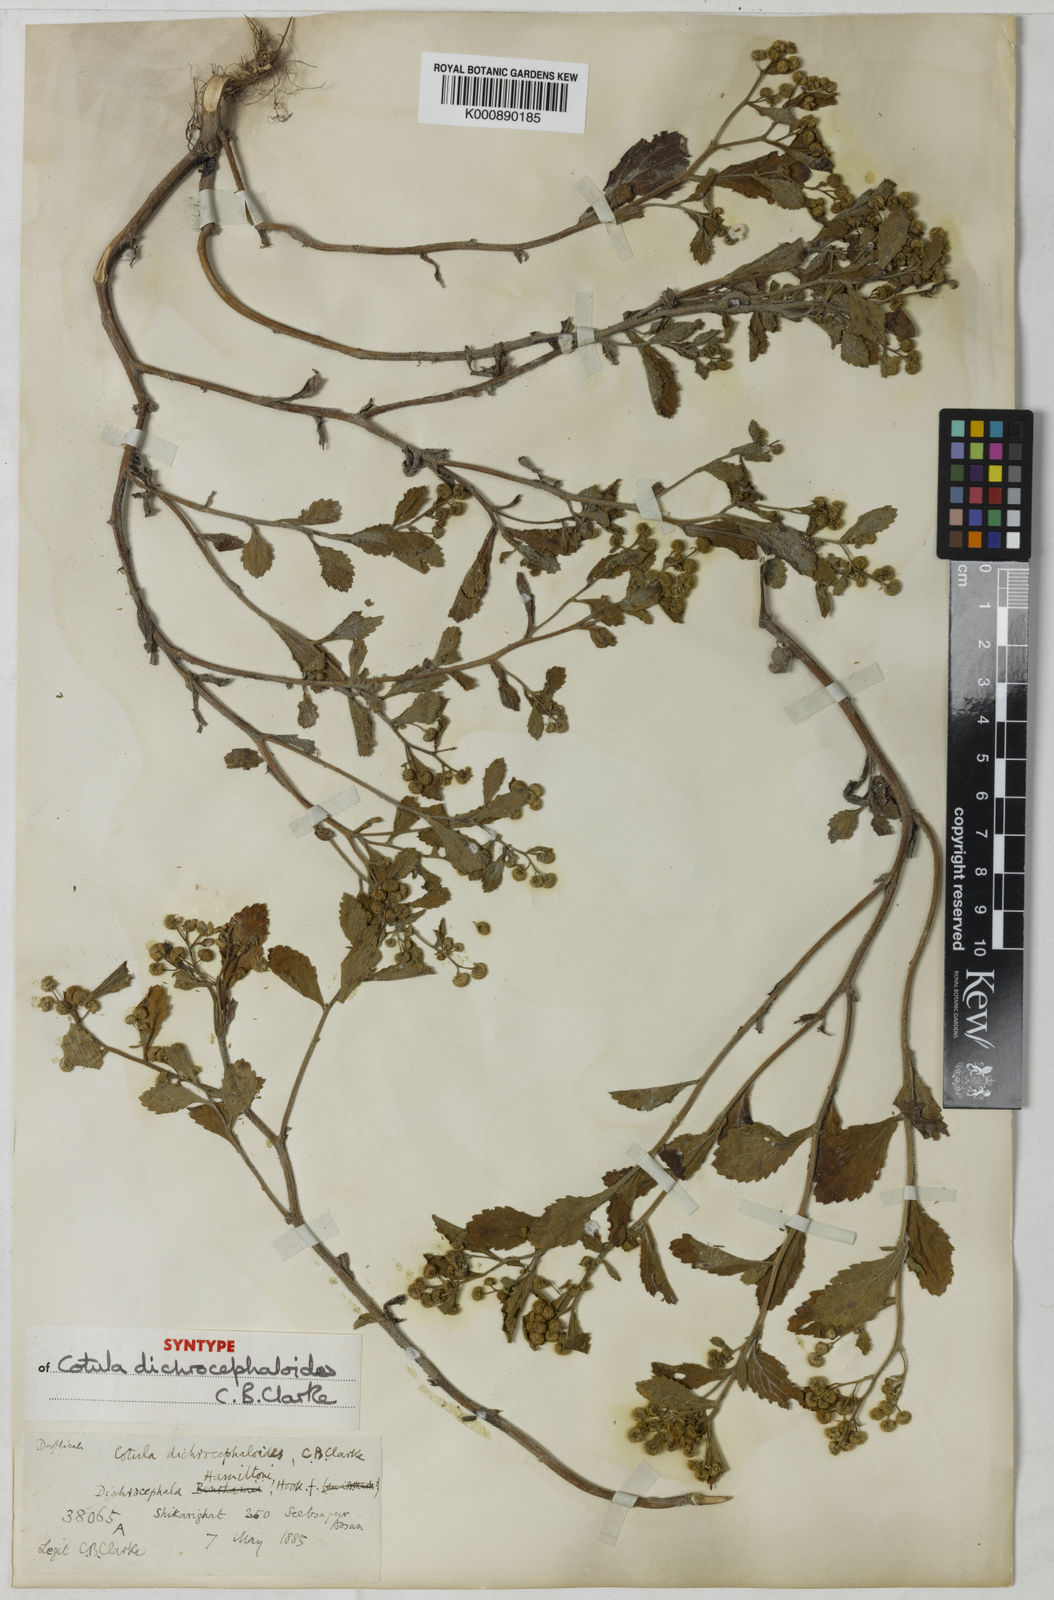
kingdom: Plantae
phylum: Tracheophyta
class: Magnoliopsida
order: Asterales
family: Asteraceae
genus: Dichrocephala
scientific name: Dichrocephala integrifolia
